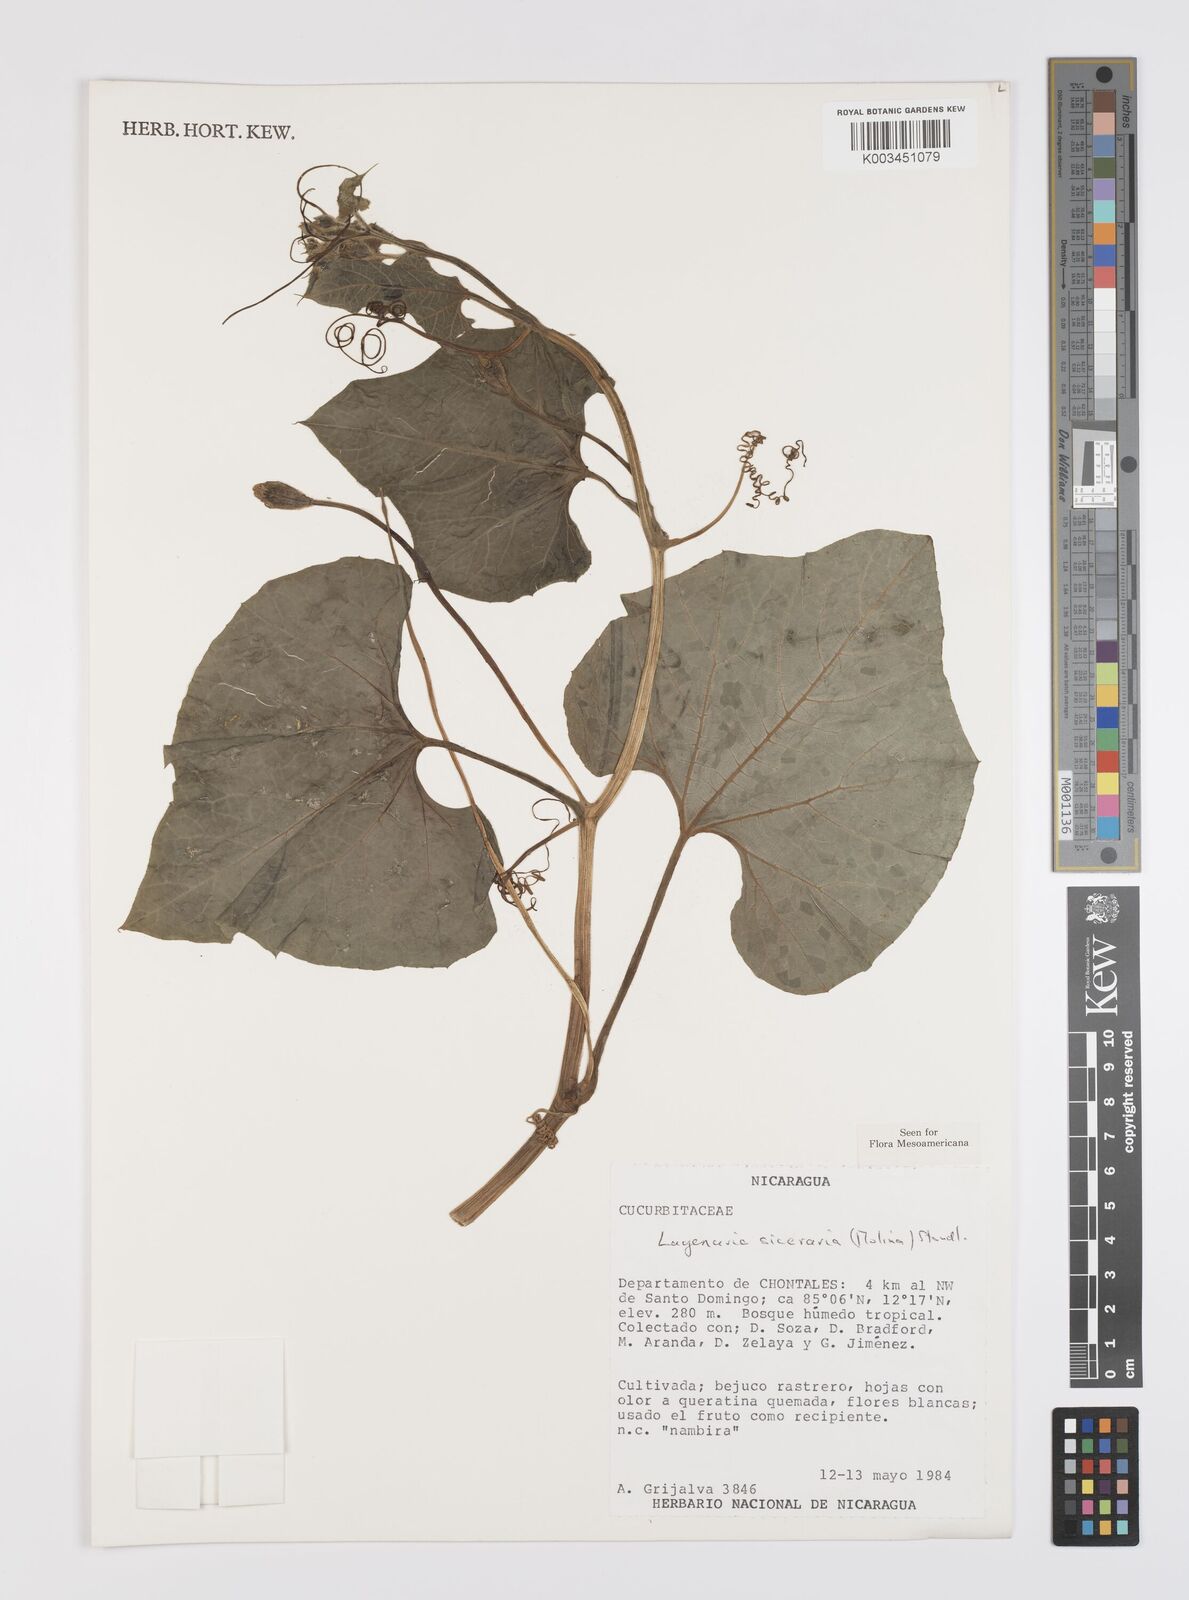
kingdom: Plantae
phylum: Tracheophyta
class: Magnoliopsida
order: Cucurbitales
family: Cucurbitaceae
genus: Lagenaria
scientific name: Lagenaria siceraria
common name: Bottle gourd
